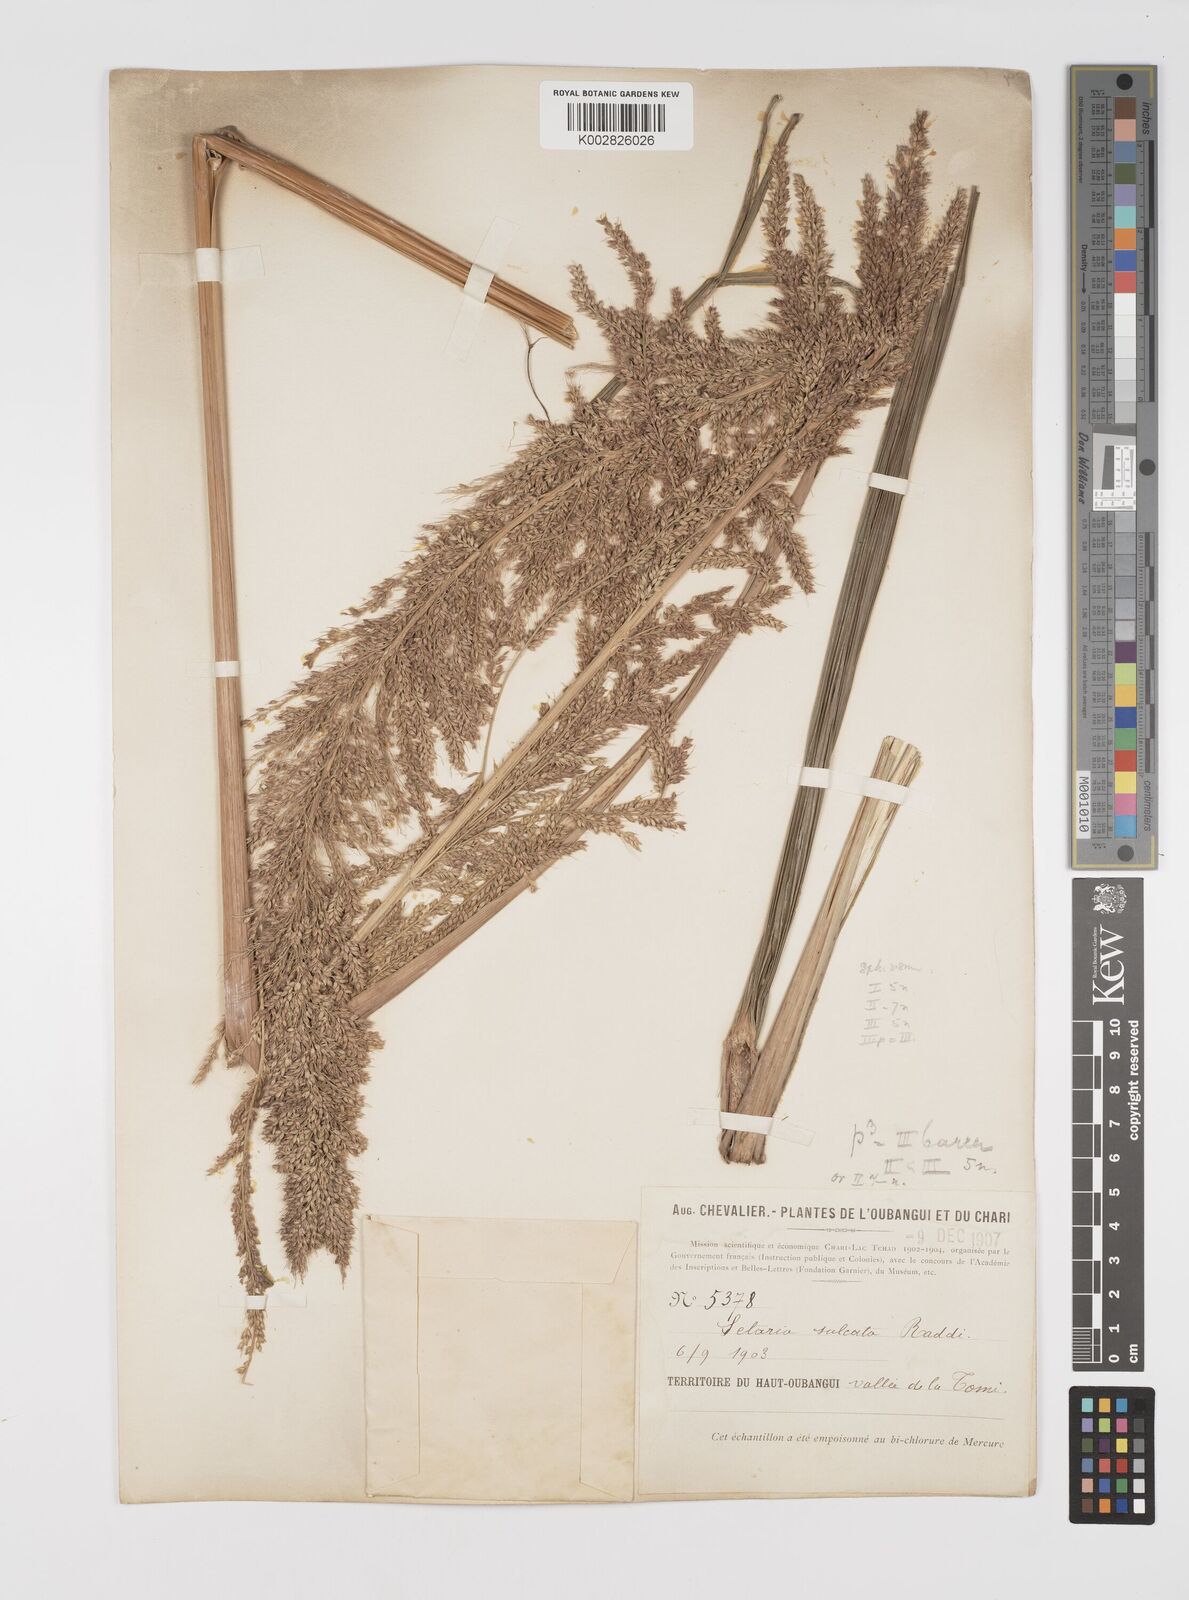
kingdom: Plantae
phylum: Tracheophyta
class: Liliopsida
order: Poales
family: Poaceae
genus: Setaria
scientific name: Setaria megaphylla
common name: Bigleaf bristlegrass
